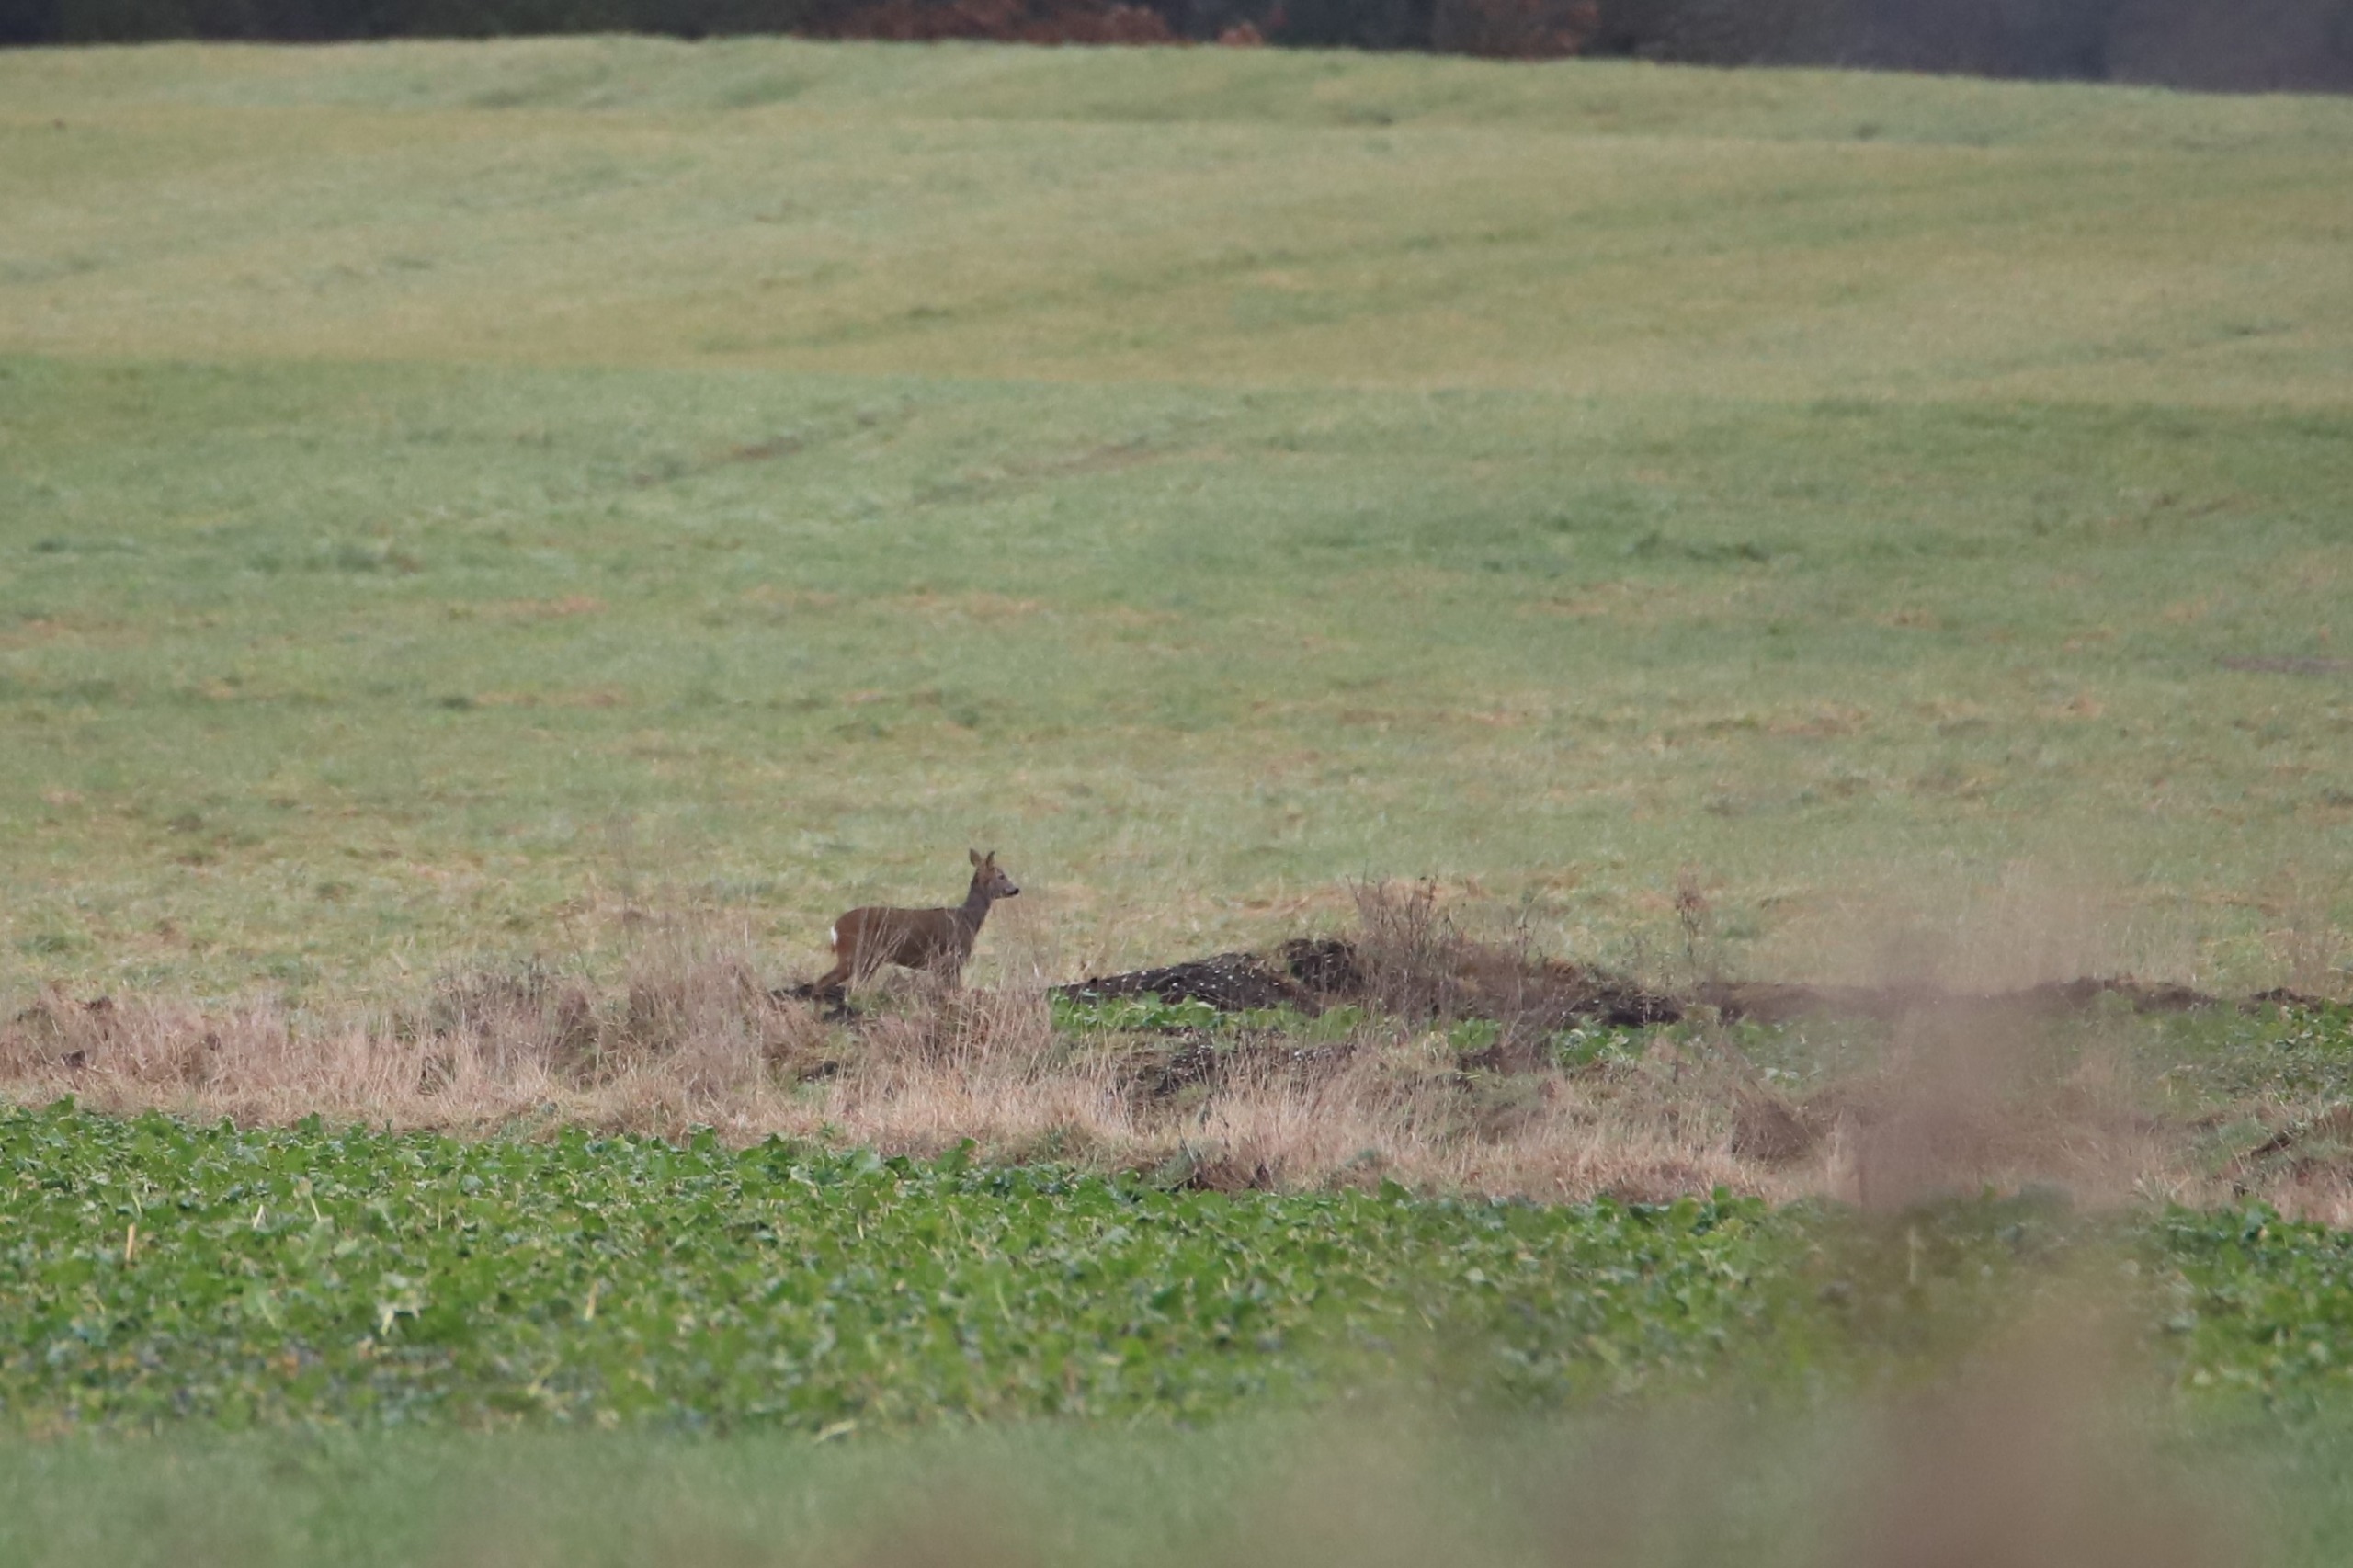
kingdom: Animalia
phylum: Chordata
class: Mammalia
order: Artiodactyla
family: Cervidae
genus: Capreolus
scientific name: Capreolus capreolus
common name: Rådyr
